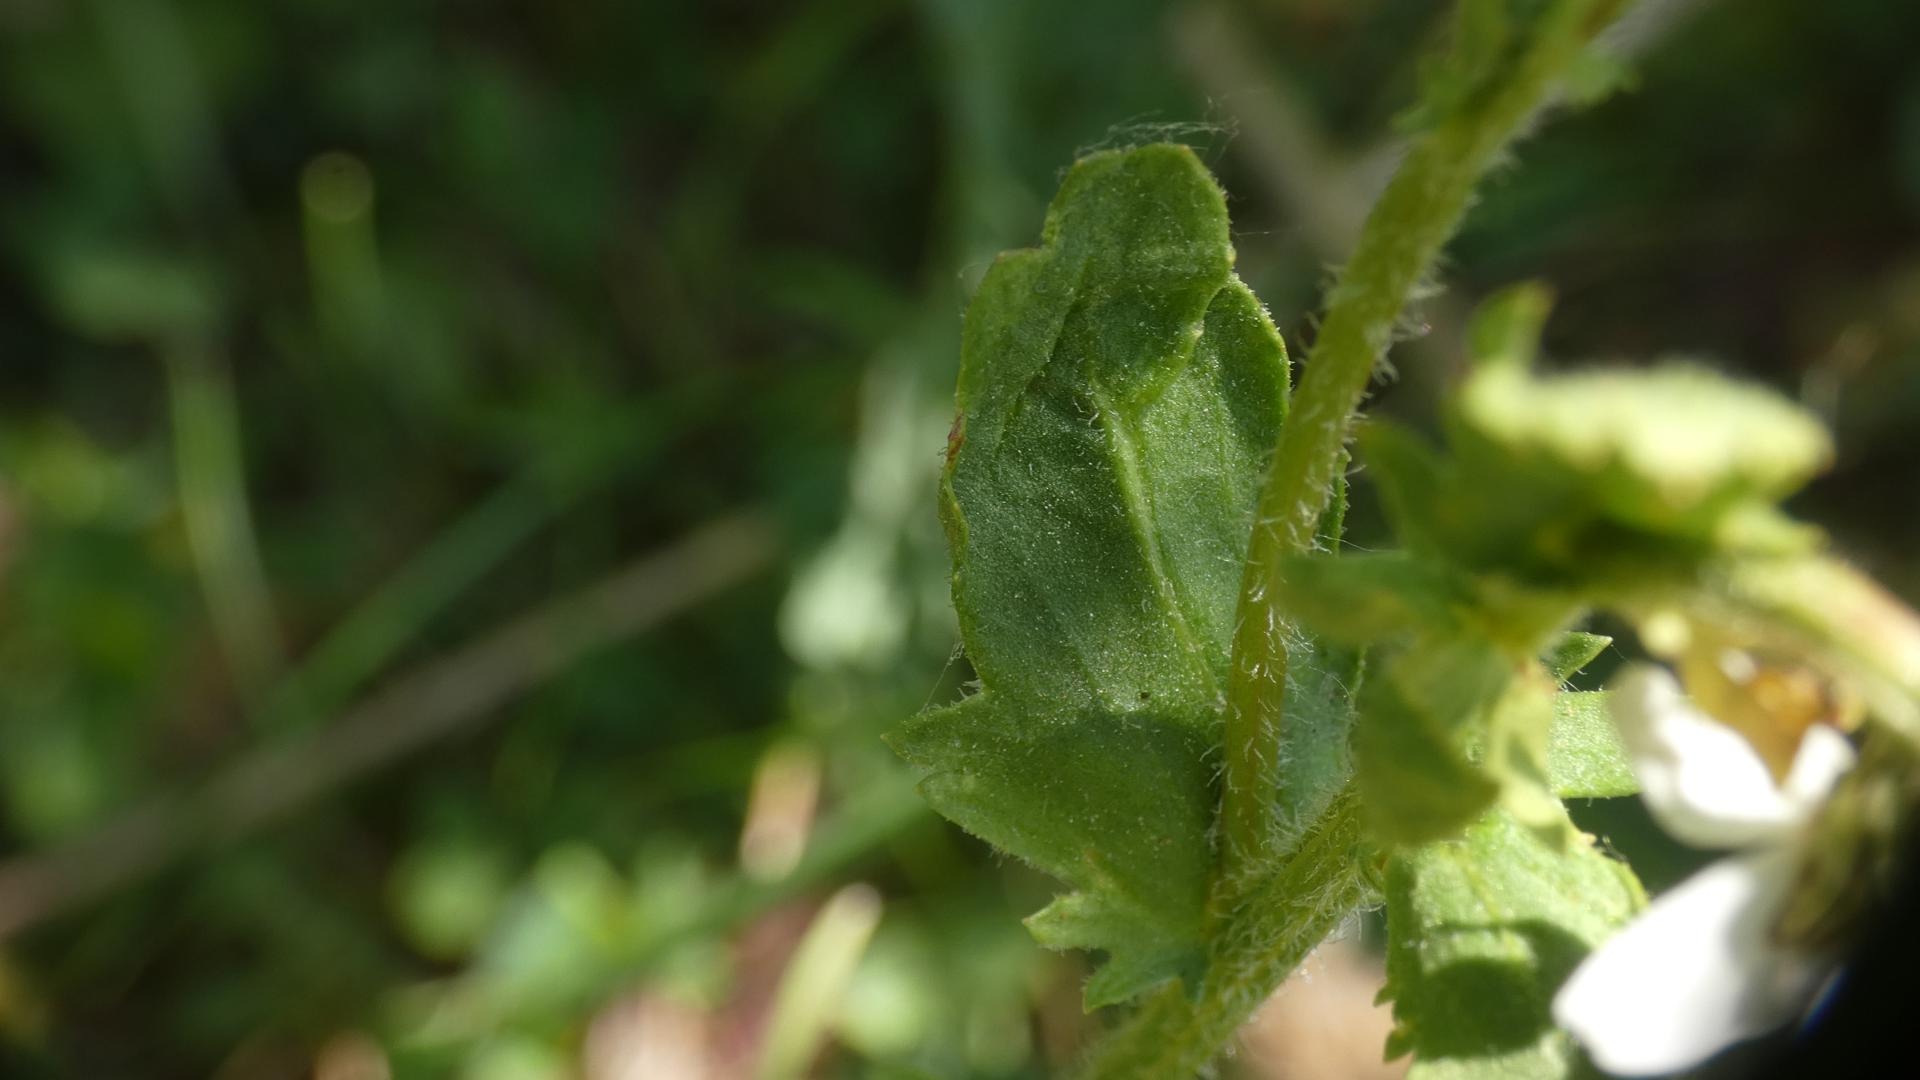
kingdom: Plantae
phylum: Tracheophyta
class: Magnoliopsida
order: Asterales
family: Asteraceae
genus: Leucanthemum
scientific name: Leucanthemum vulgare
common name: Hvid okseøje
